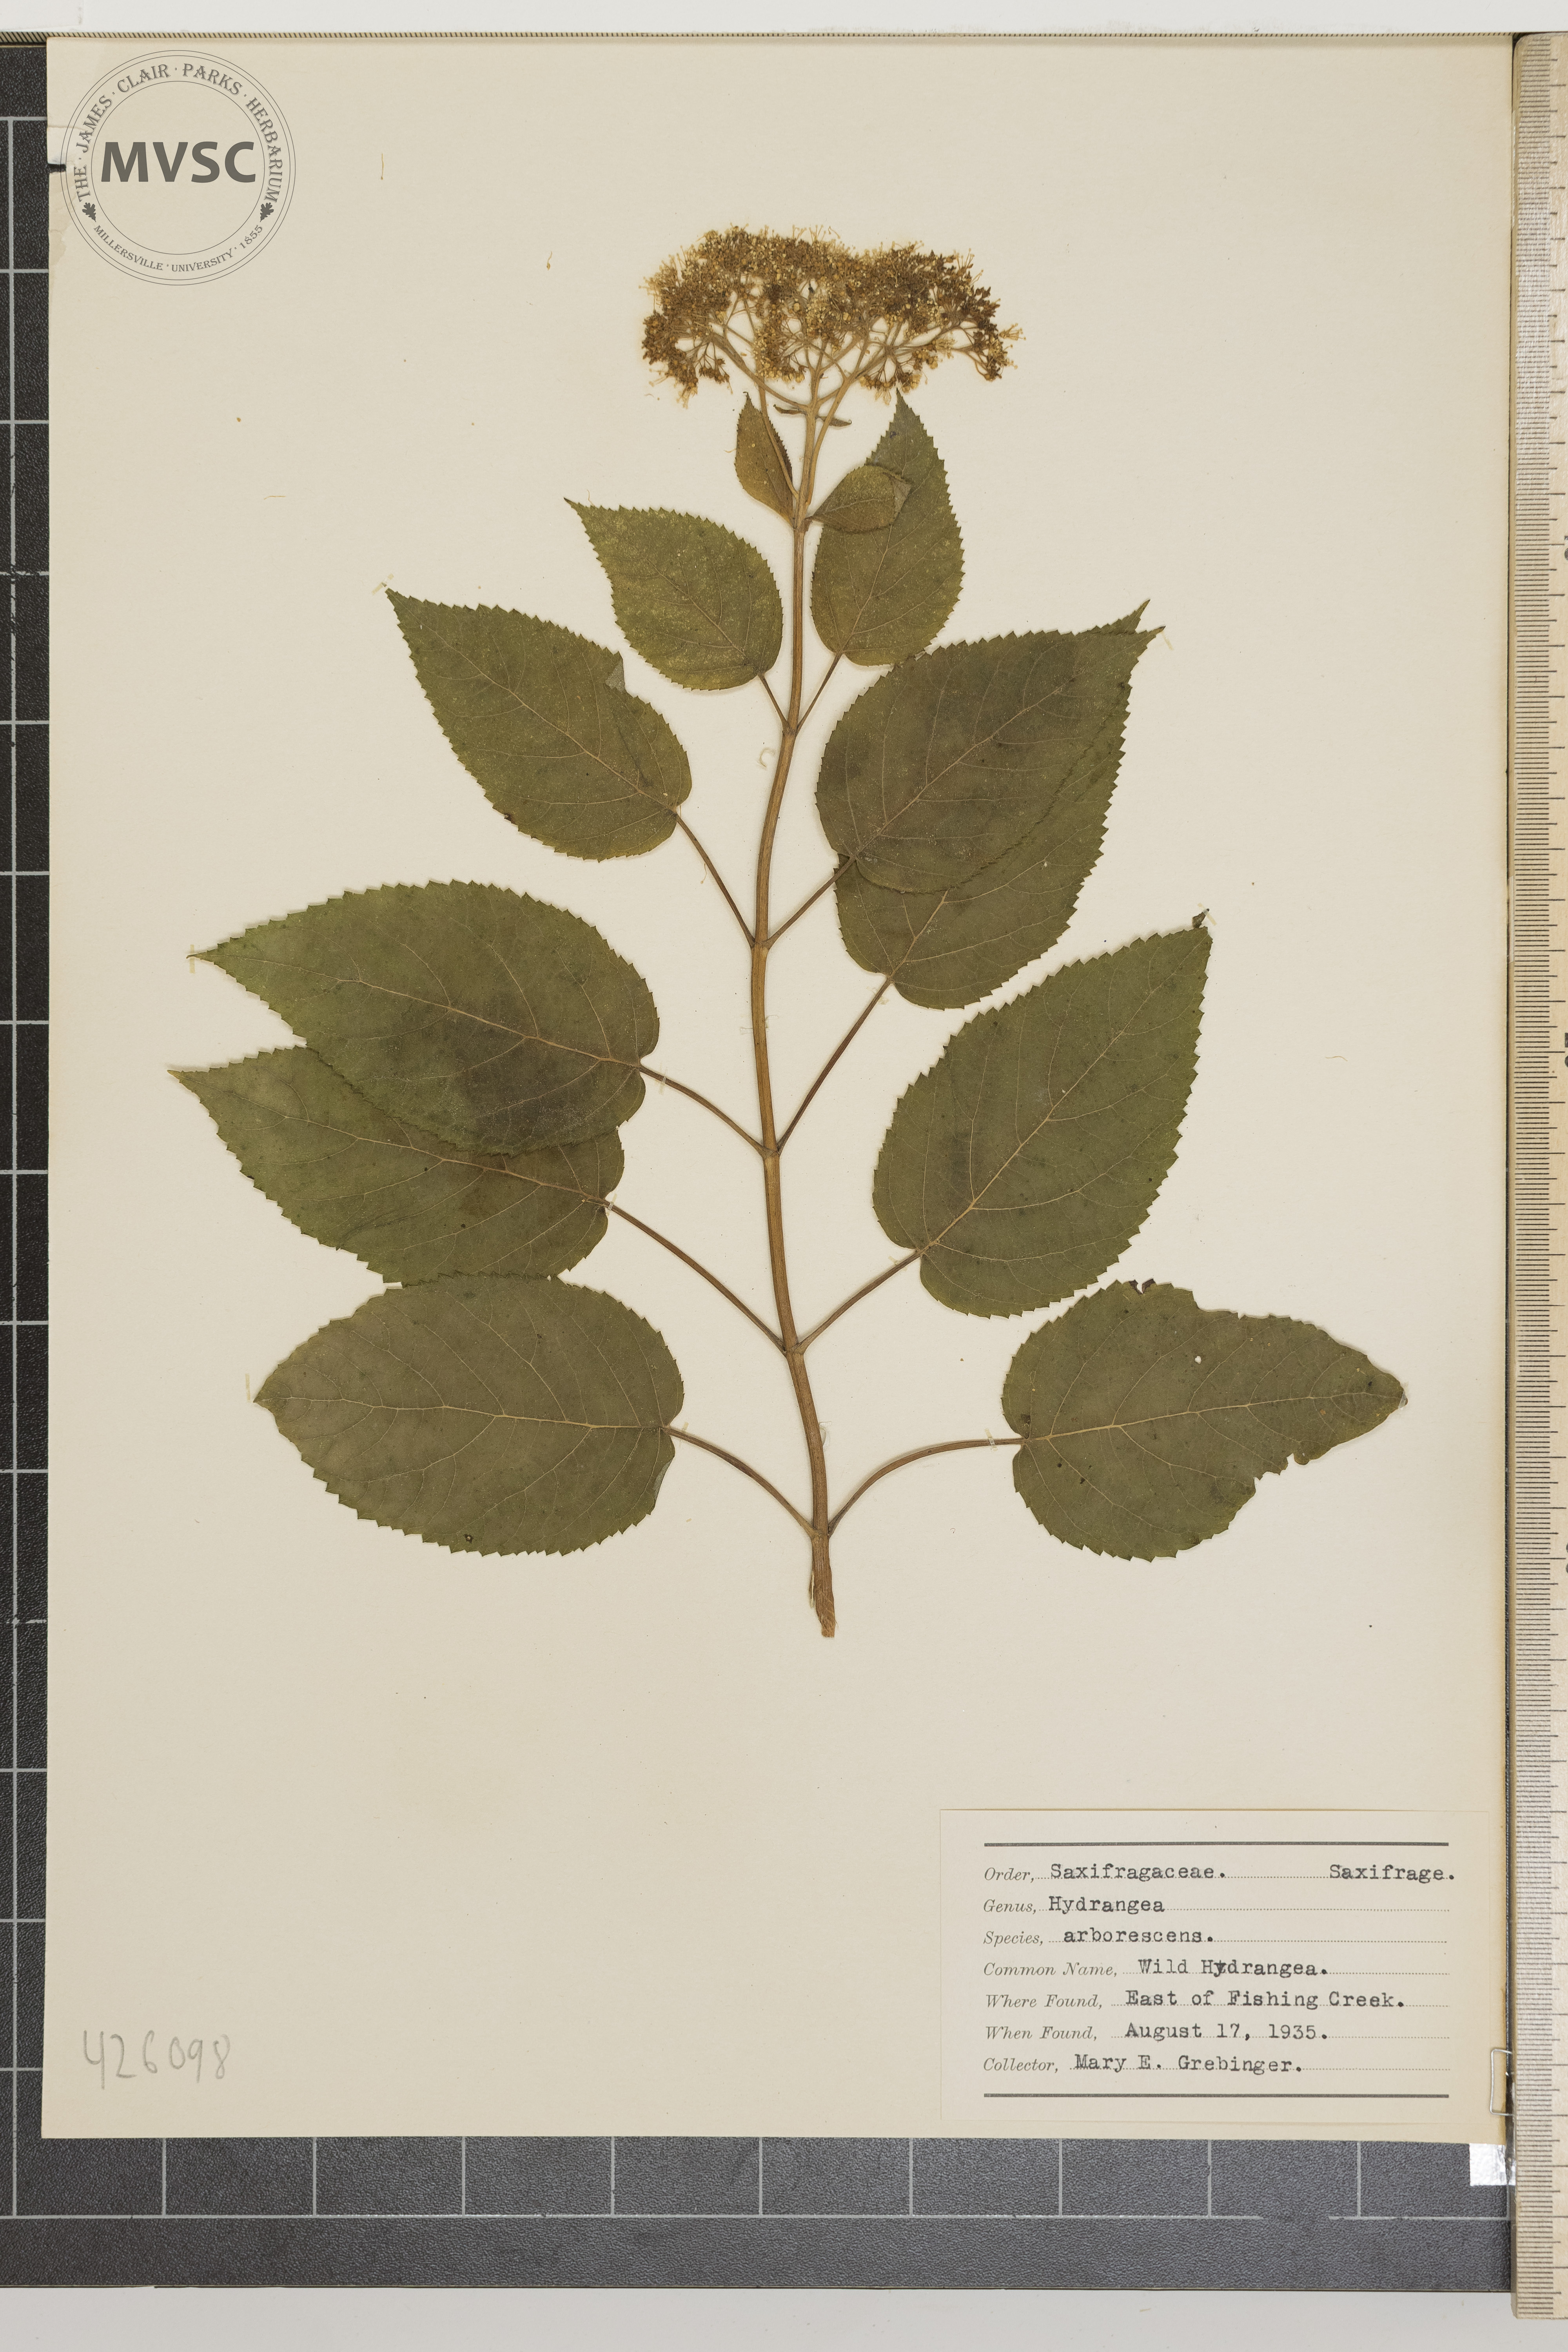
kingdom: Plantae
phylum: Tracheophyta
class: Magnoliopsida
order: Cornales
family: Hydrangeaceae
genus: Hydrangea
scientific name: Hydrangea arborescens
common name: Wild hydrangea
